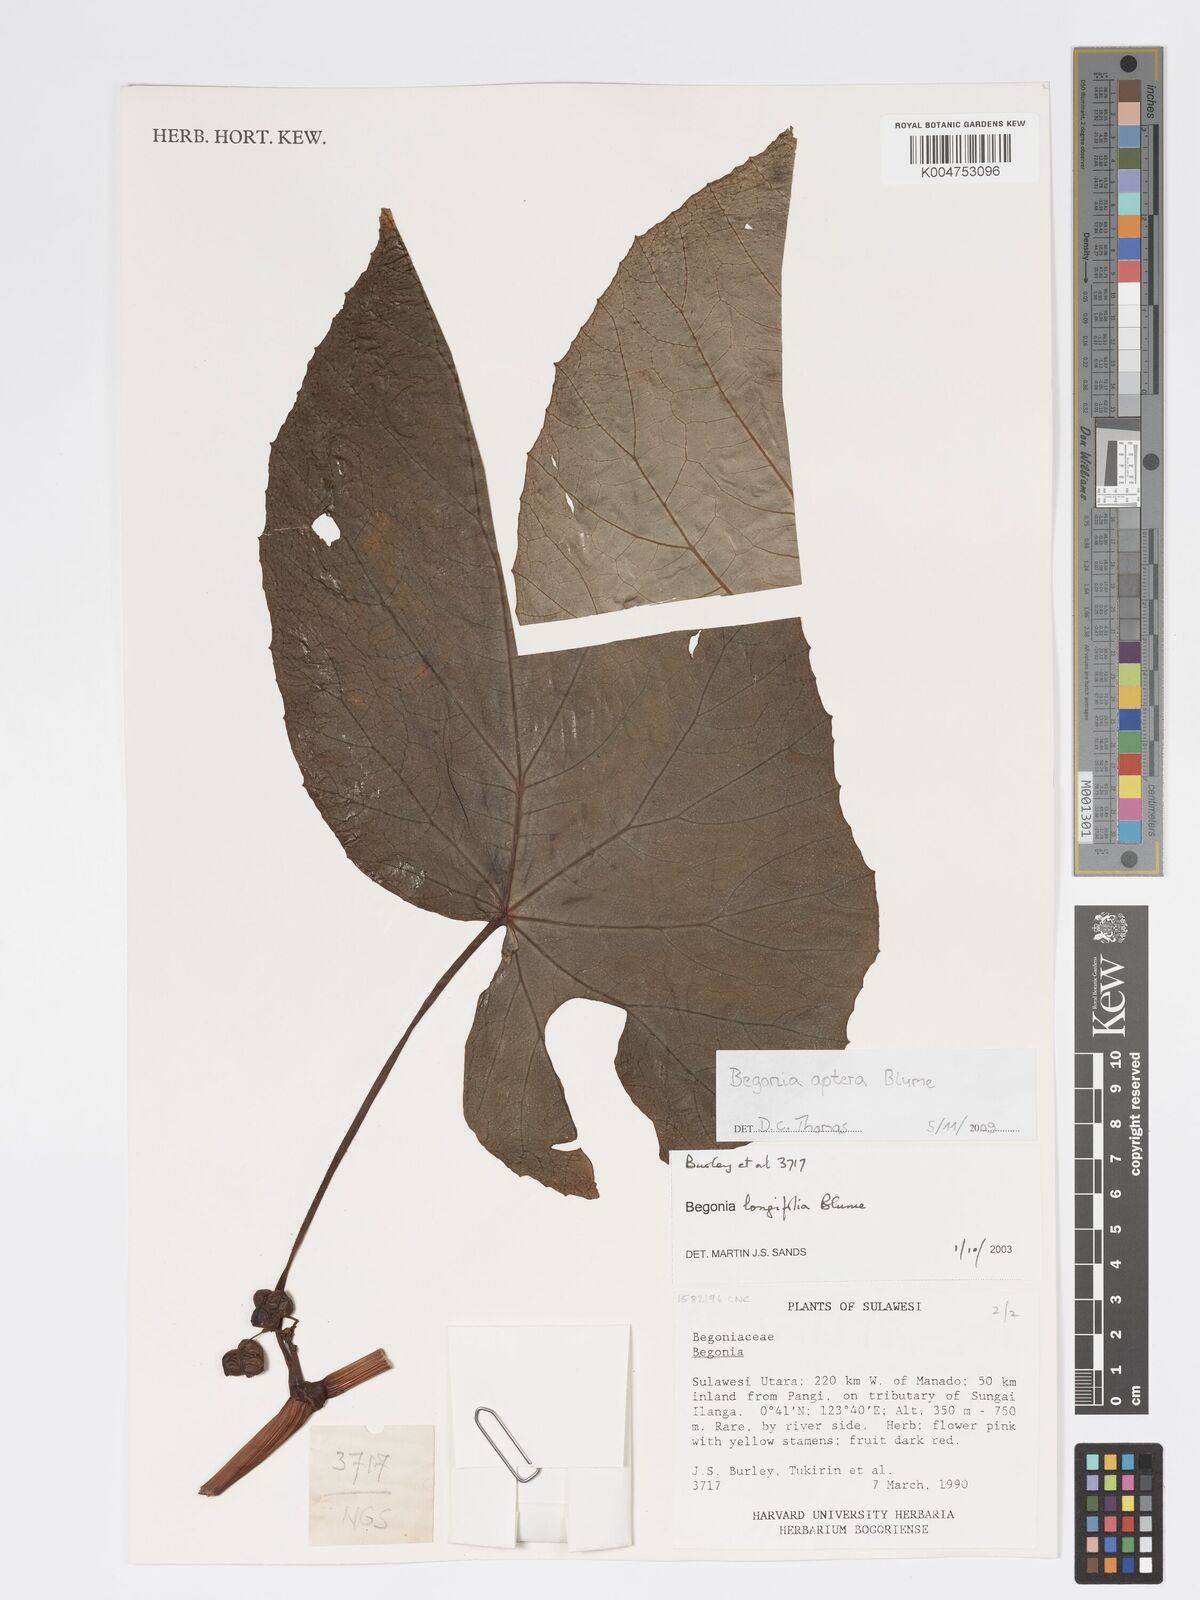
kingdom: Plantae
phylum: Tracheophyta
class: Magnoliopsida
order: Cucurbitales
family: Begoniaceae
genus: Begonia
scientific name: Begonia
